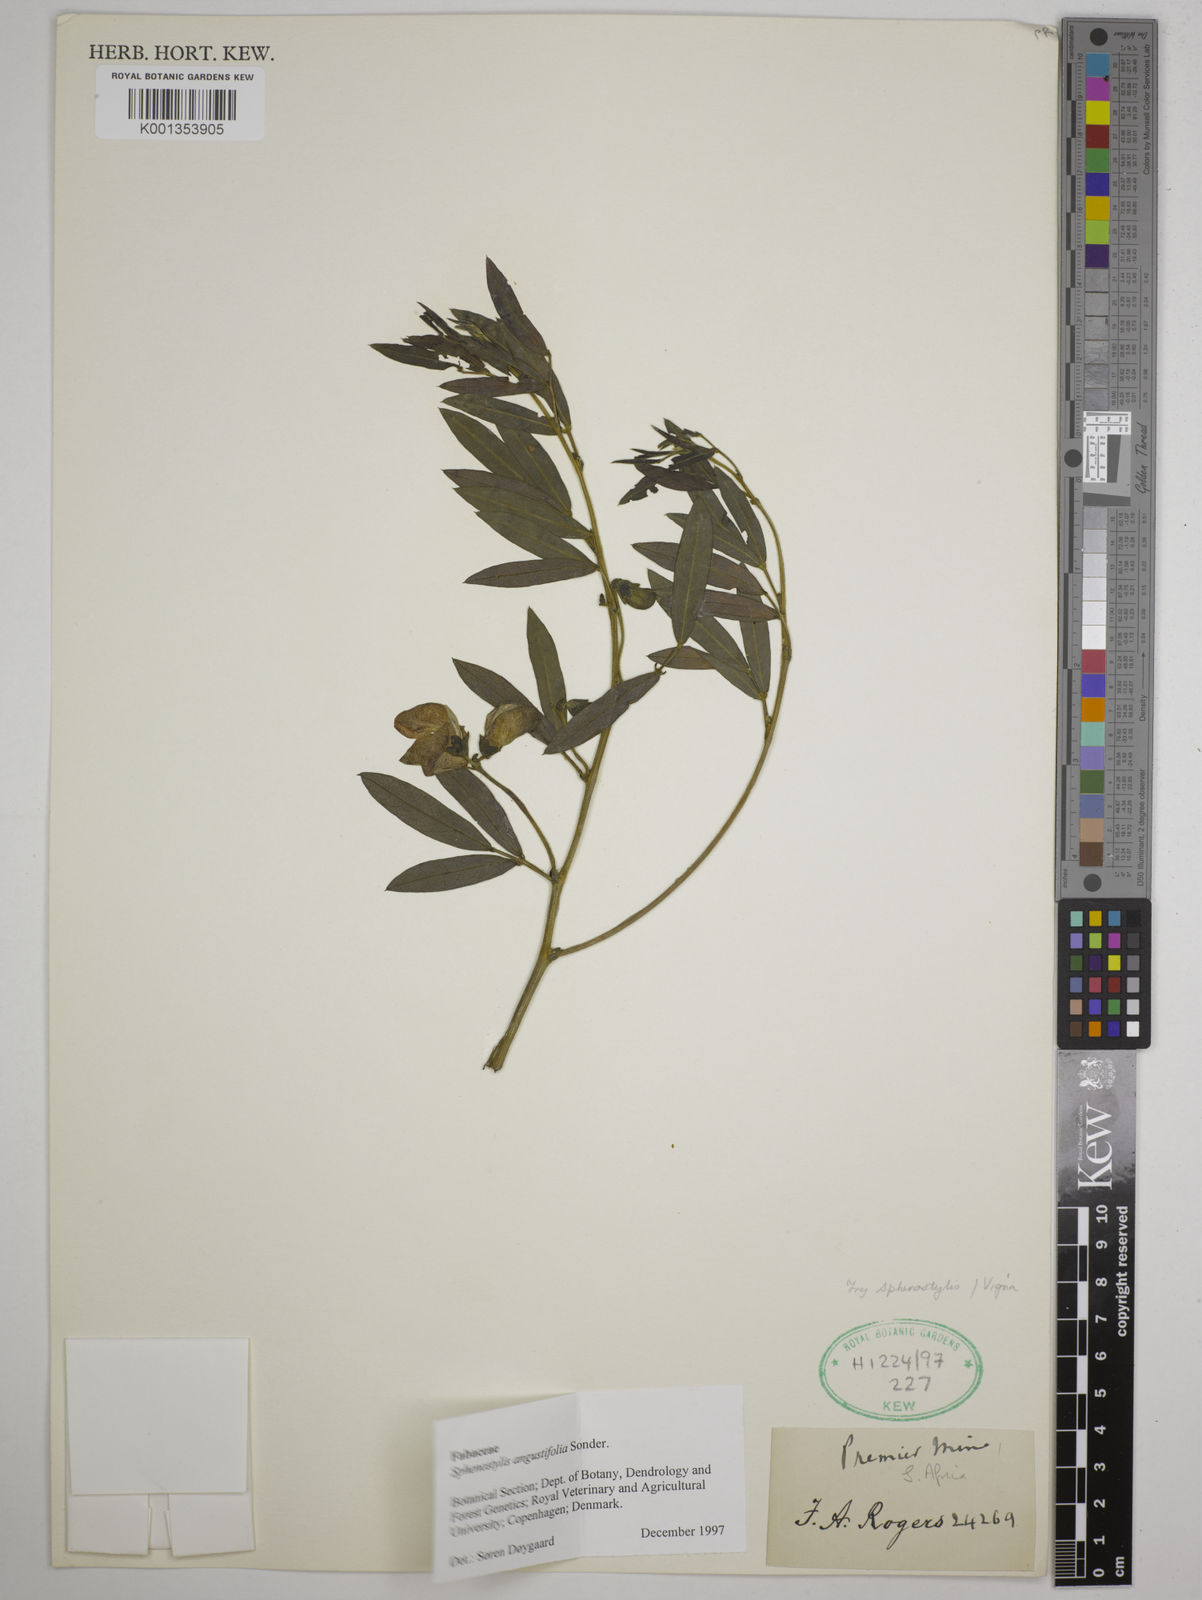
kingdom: Plantae
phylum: Tracheophyta
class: Magnoliopsida
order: Fabales
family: Fabaceae
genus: Sphenostylis
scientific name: Sphenostylis angustifolia
